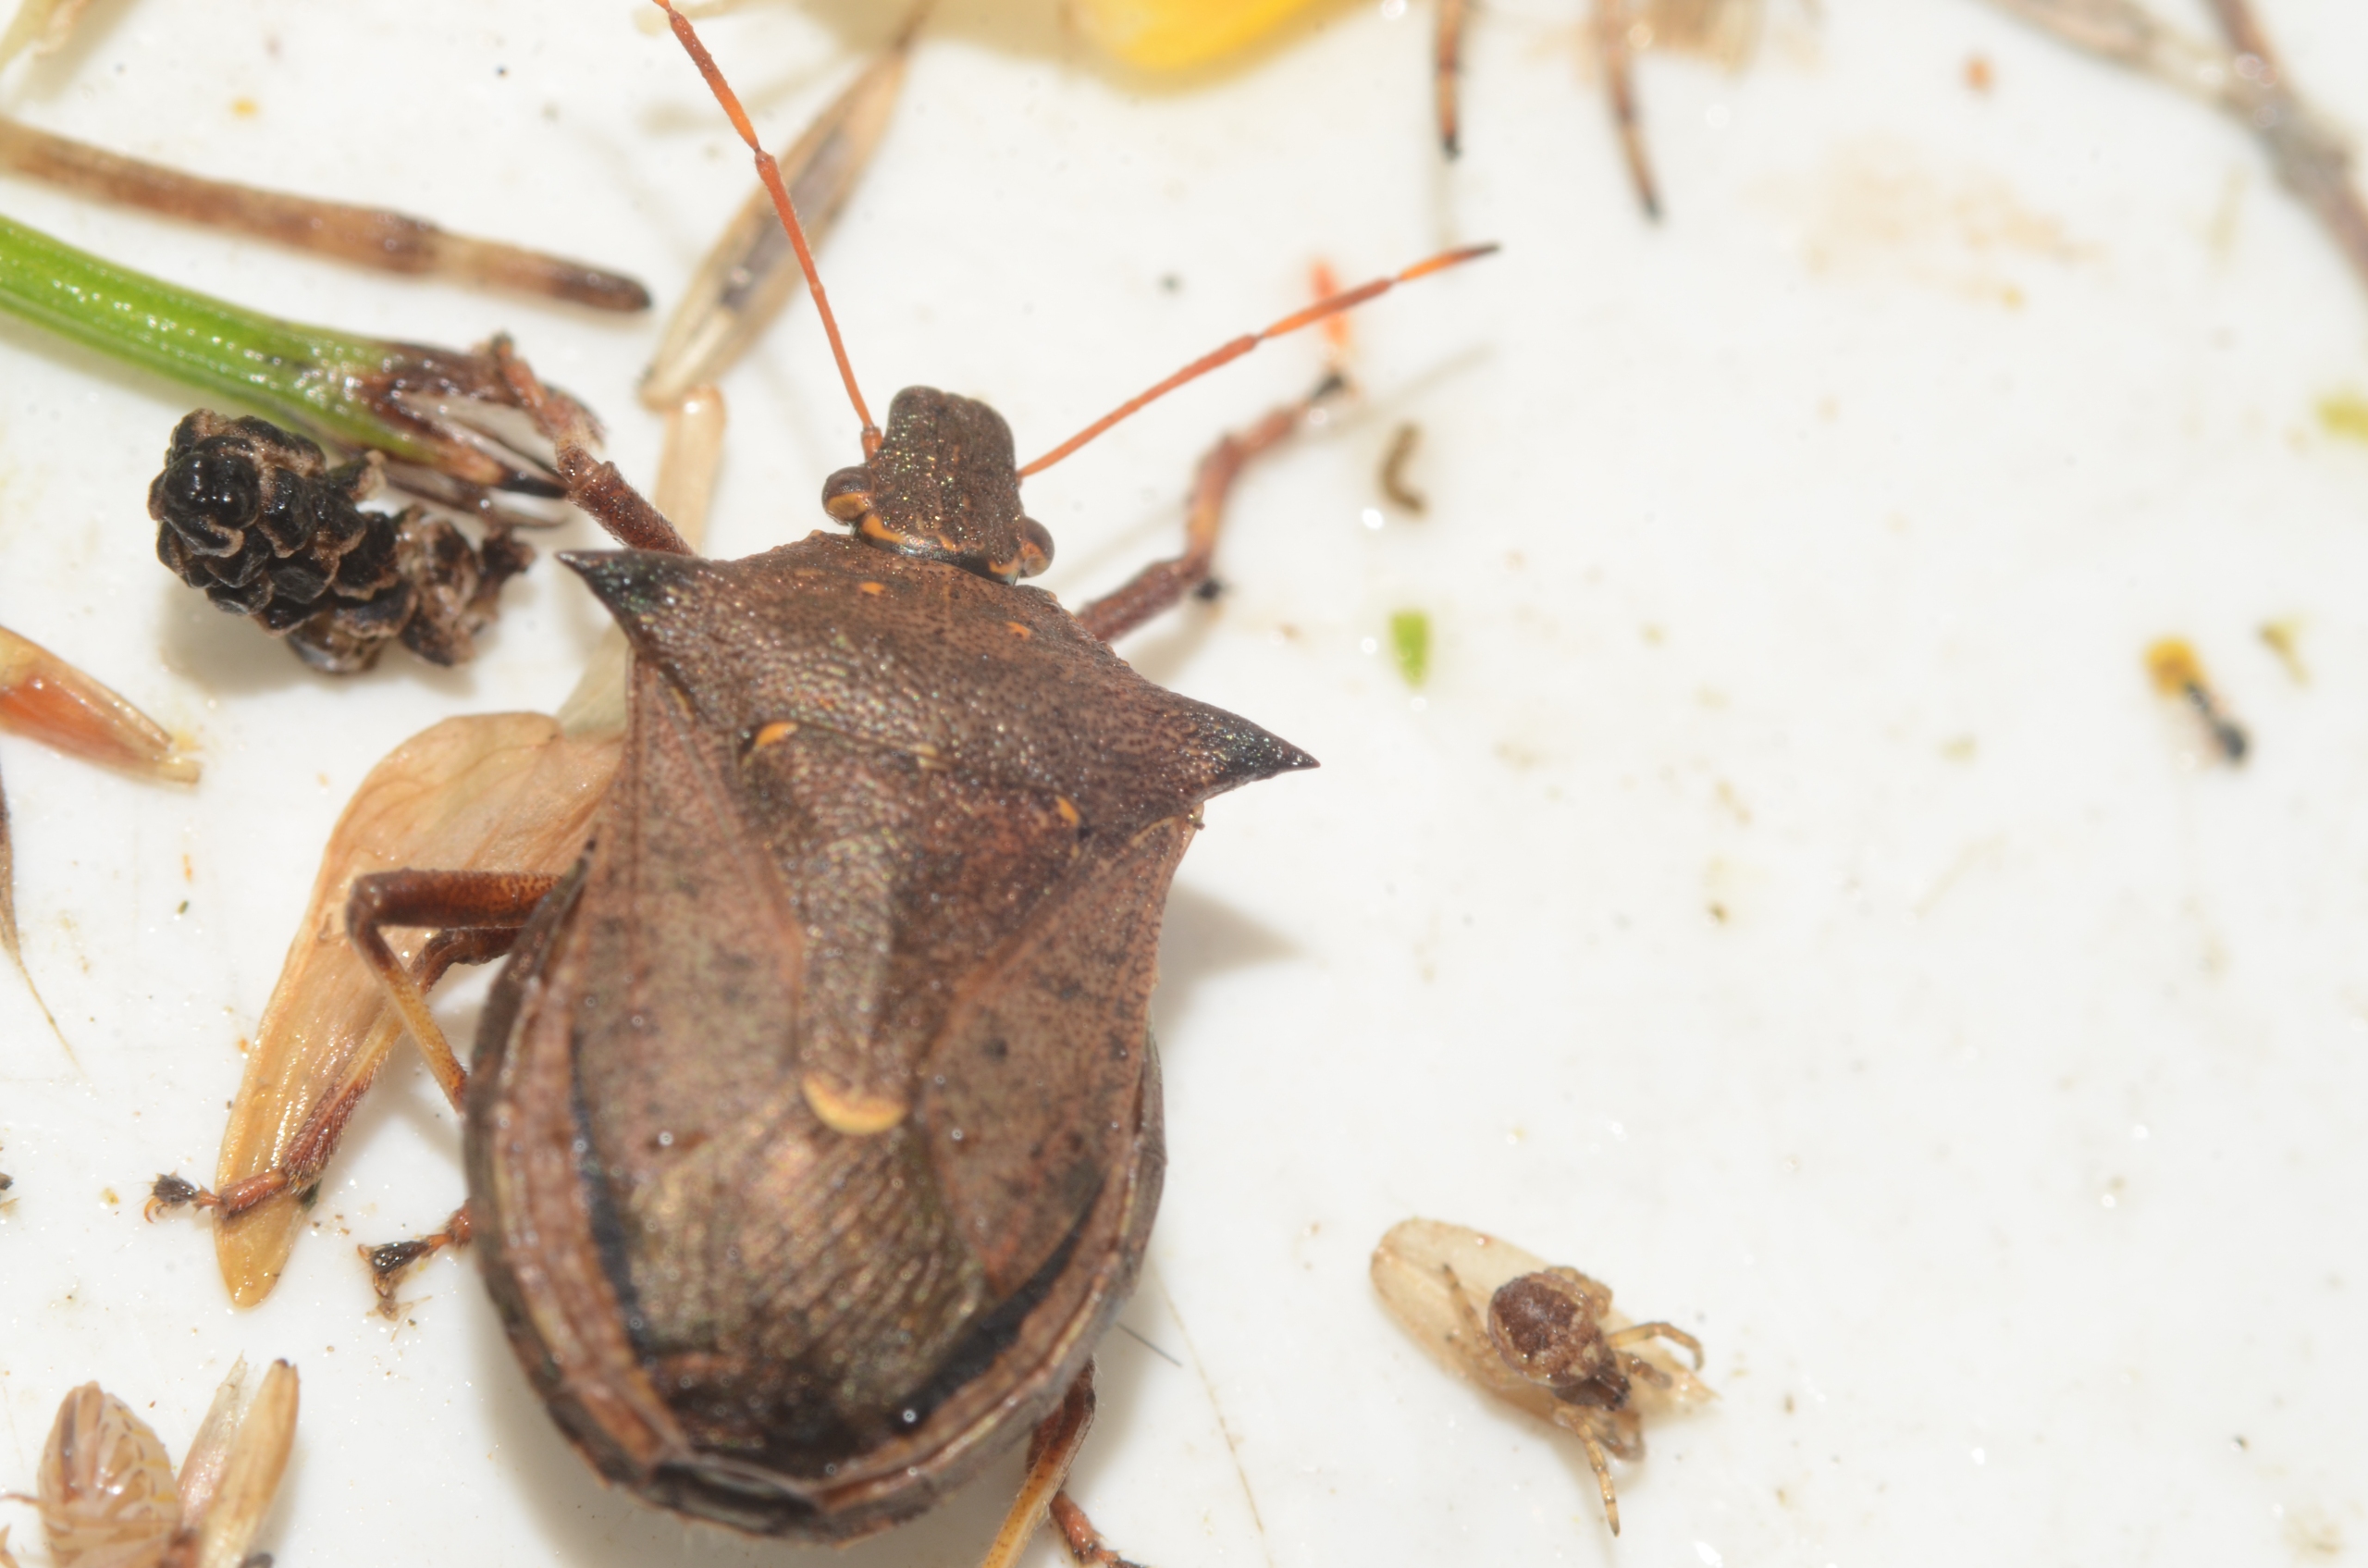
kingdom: Animalia
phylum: Arthropoda
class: Insecta
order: Hemiptera
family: Pentatomidae
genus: Picromerus
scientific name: Picromerus bidens
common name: Torntæge
